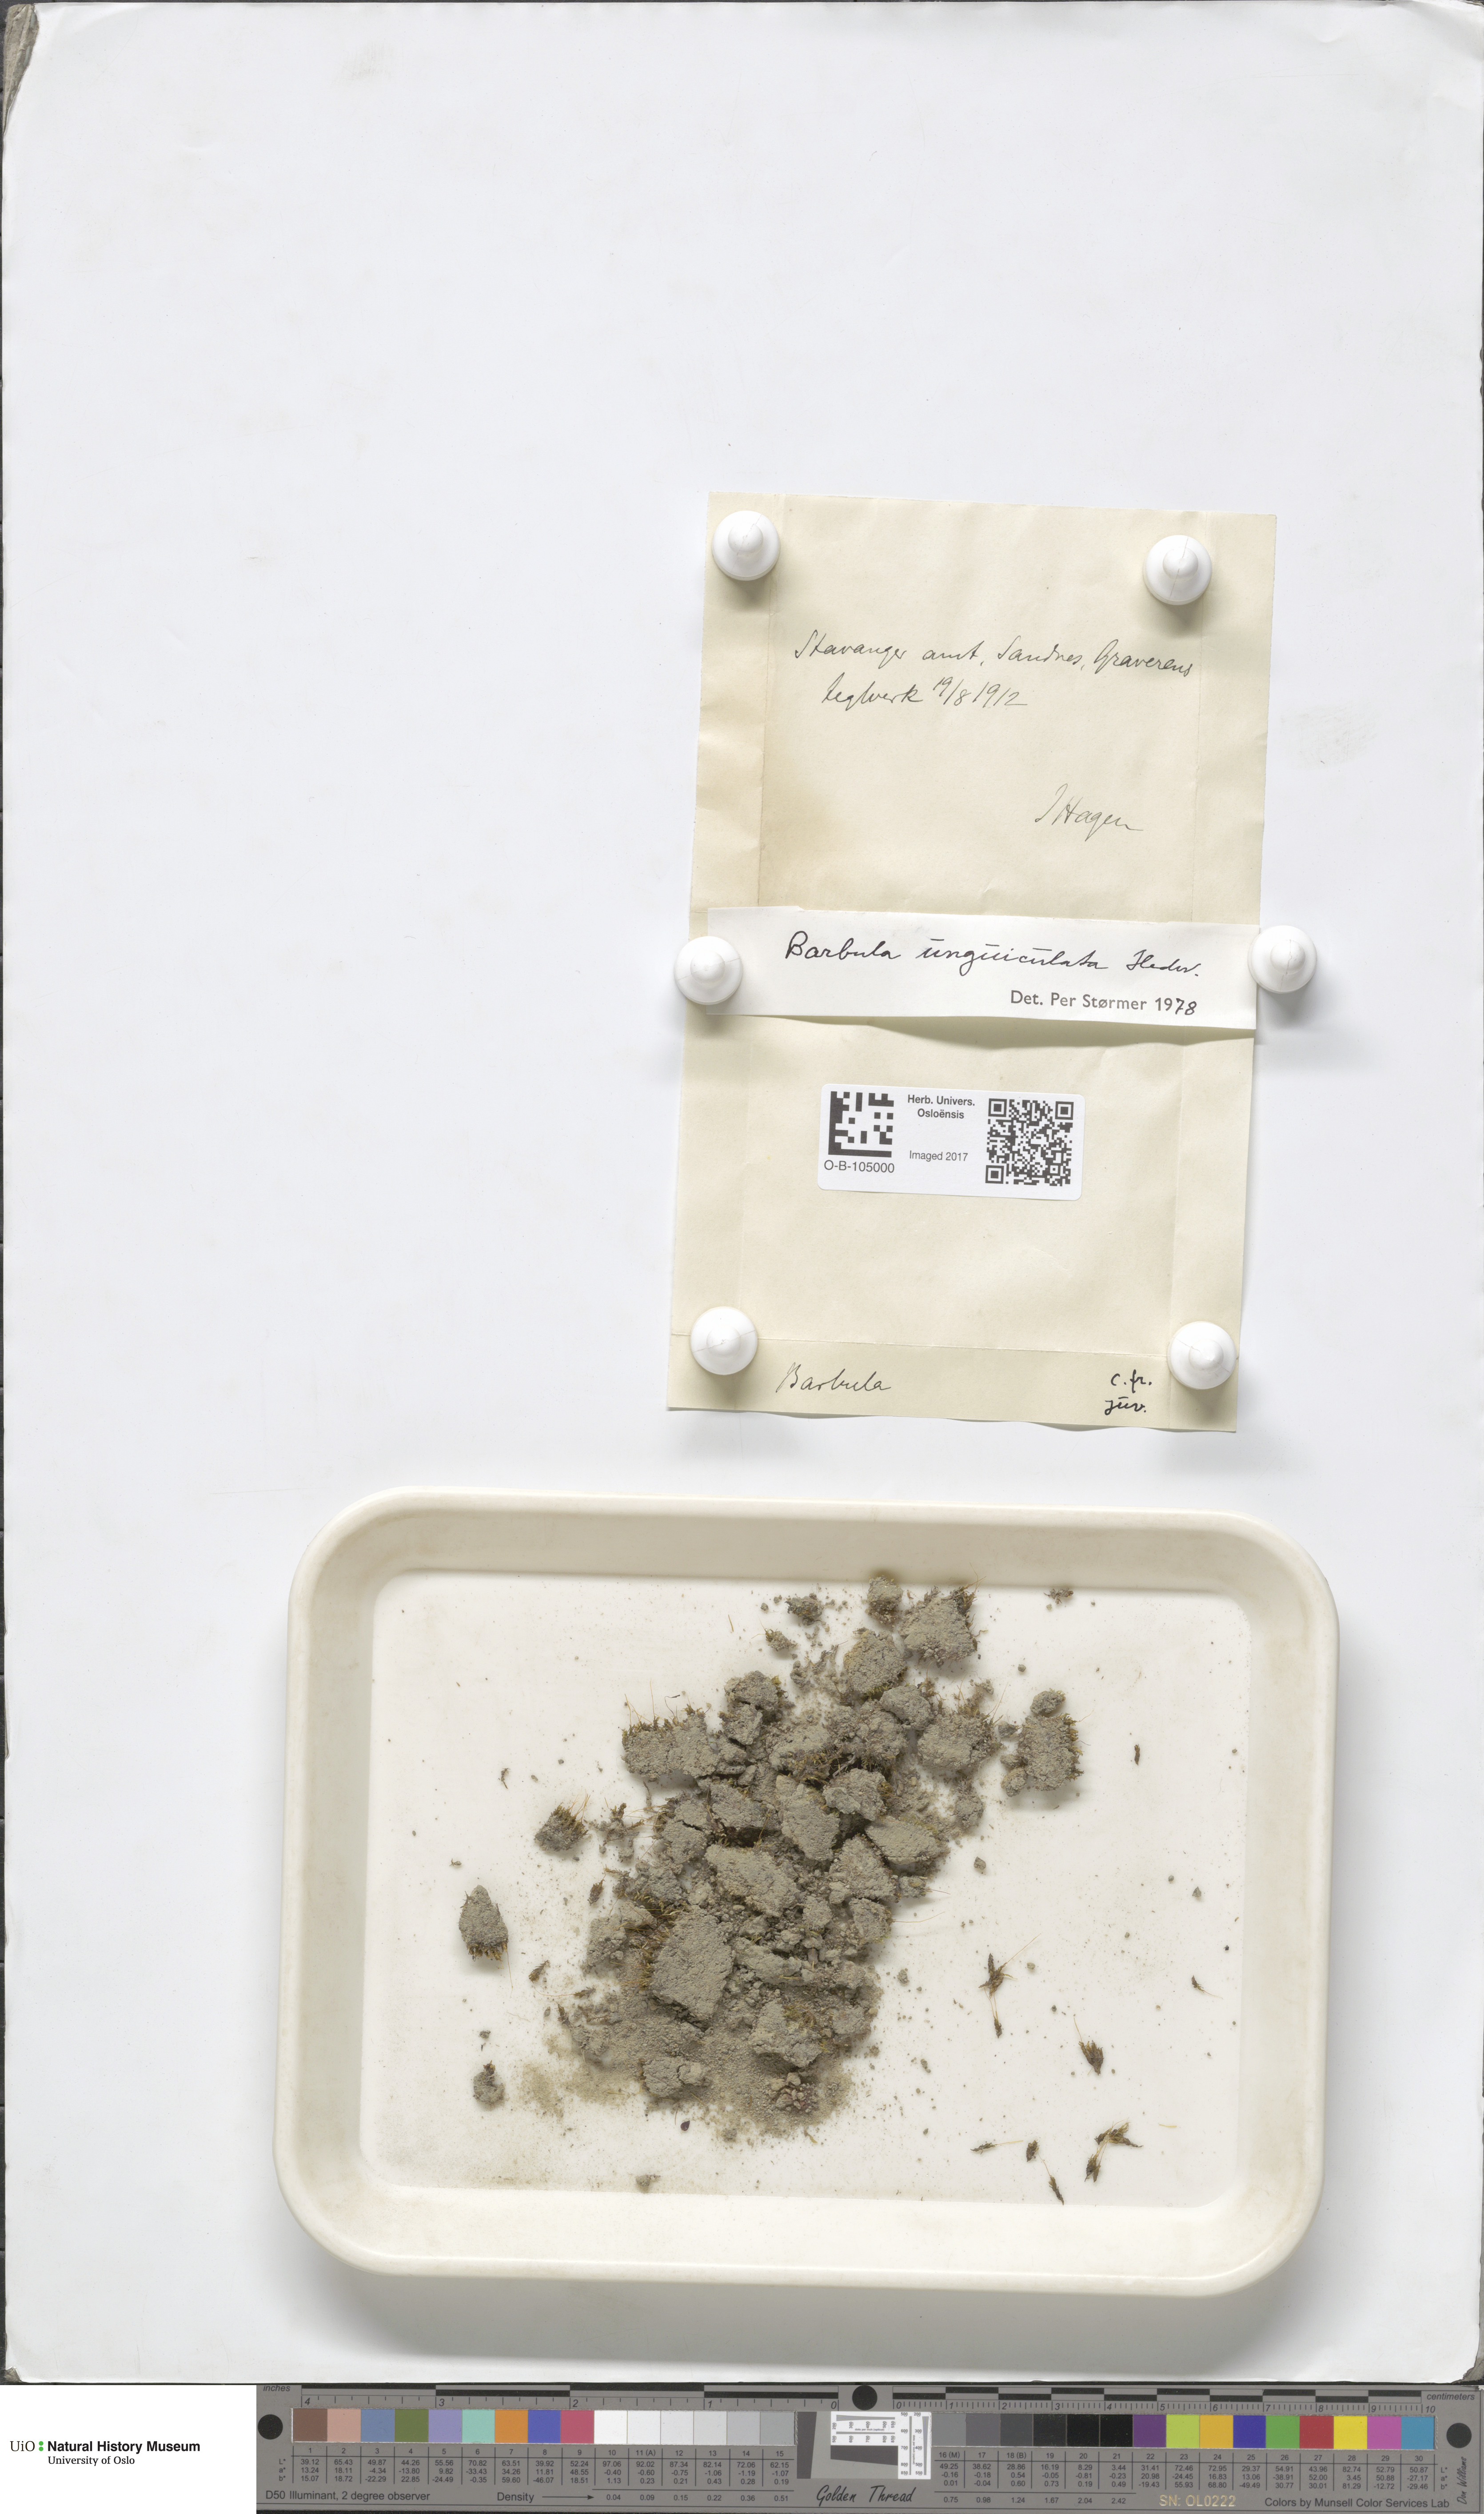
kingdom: Plantae
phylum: Bryophyta
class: Bryopsida
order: Pottiales
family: Pottiaceae
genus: Barbula
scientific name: Barbula unguiculata
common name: Prickly beard moss
